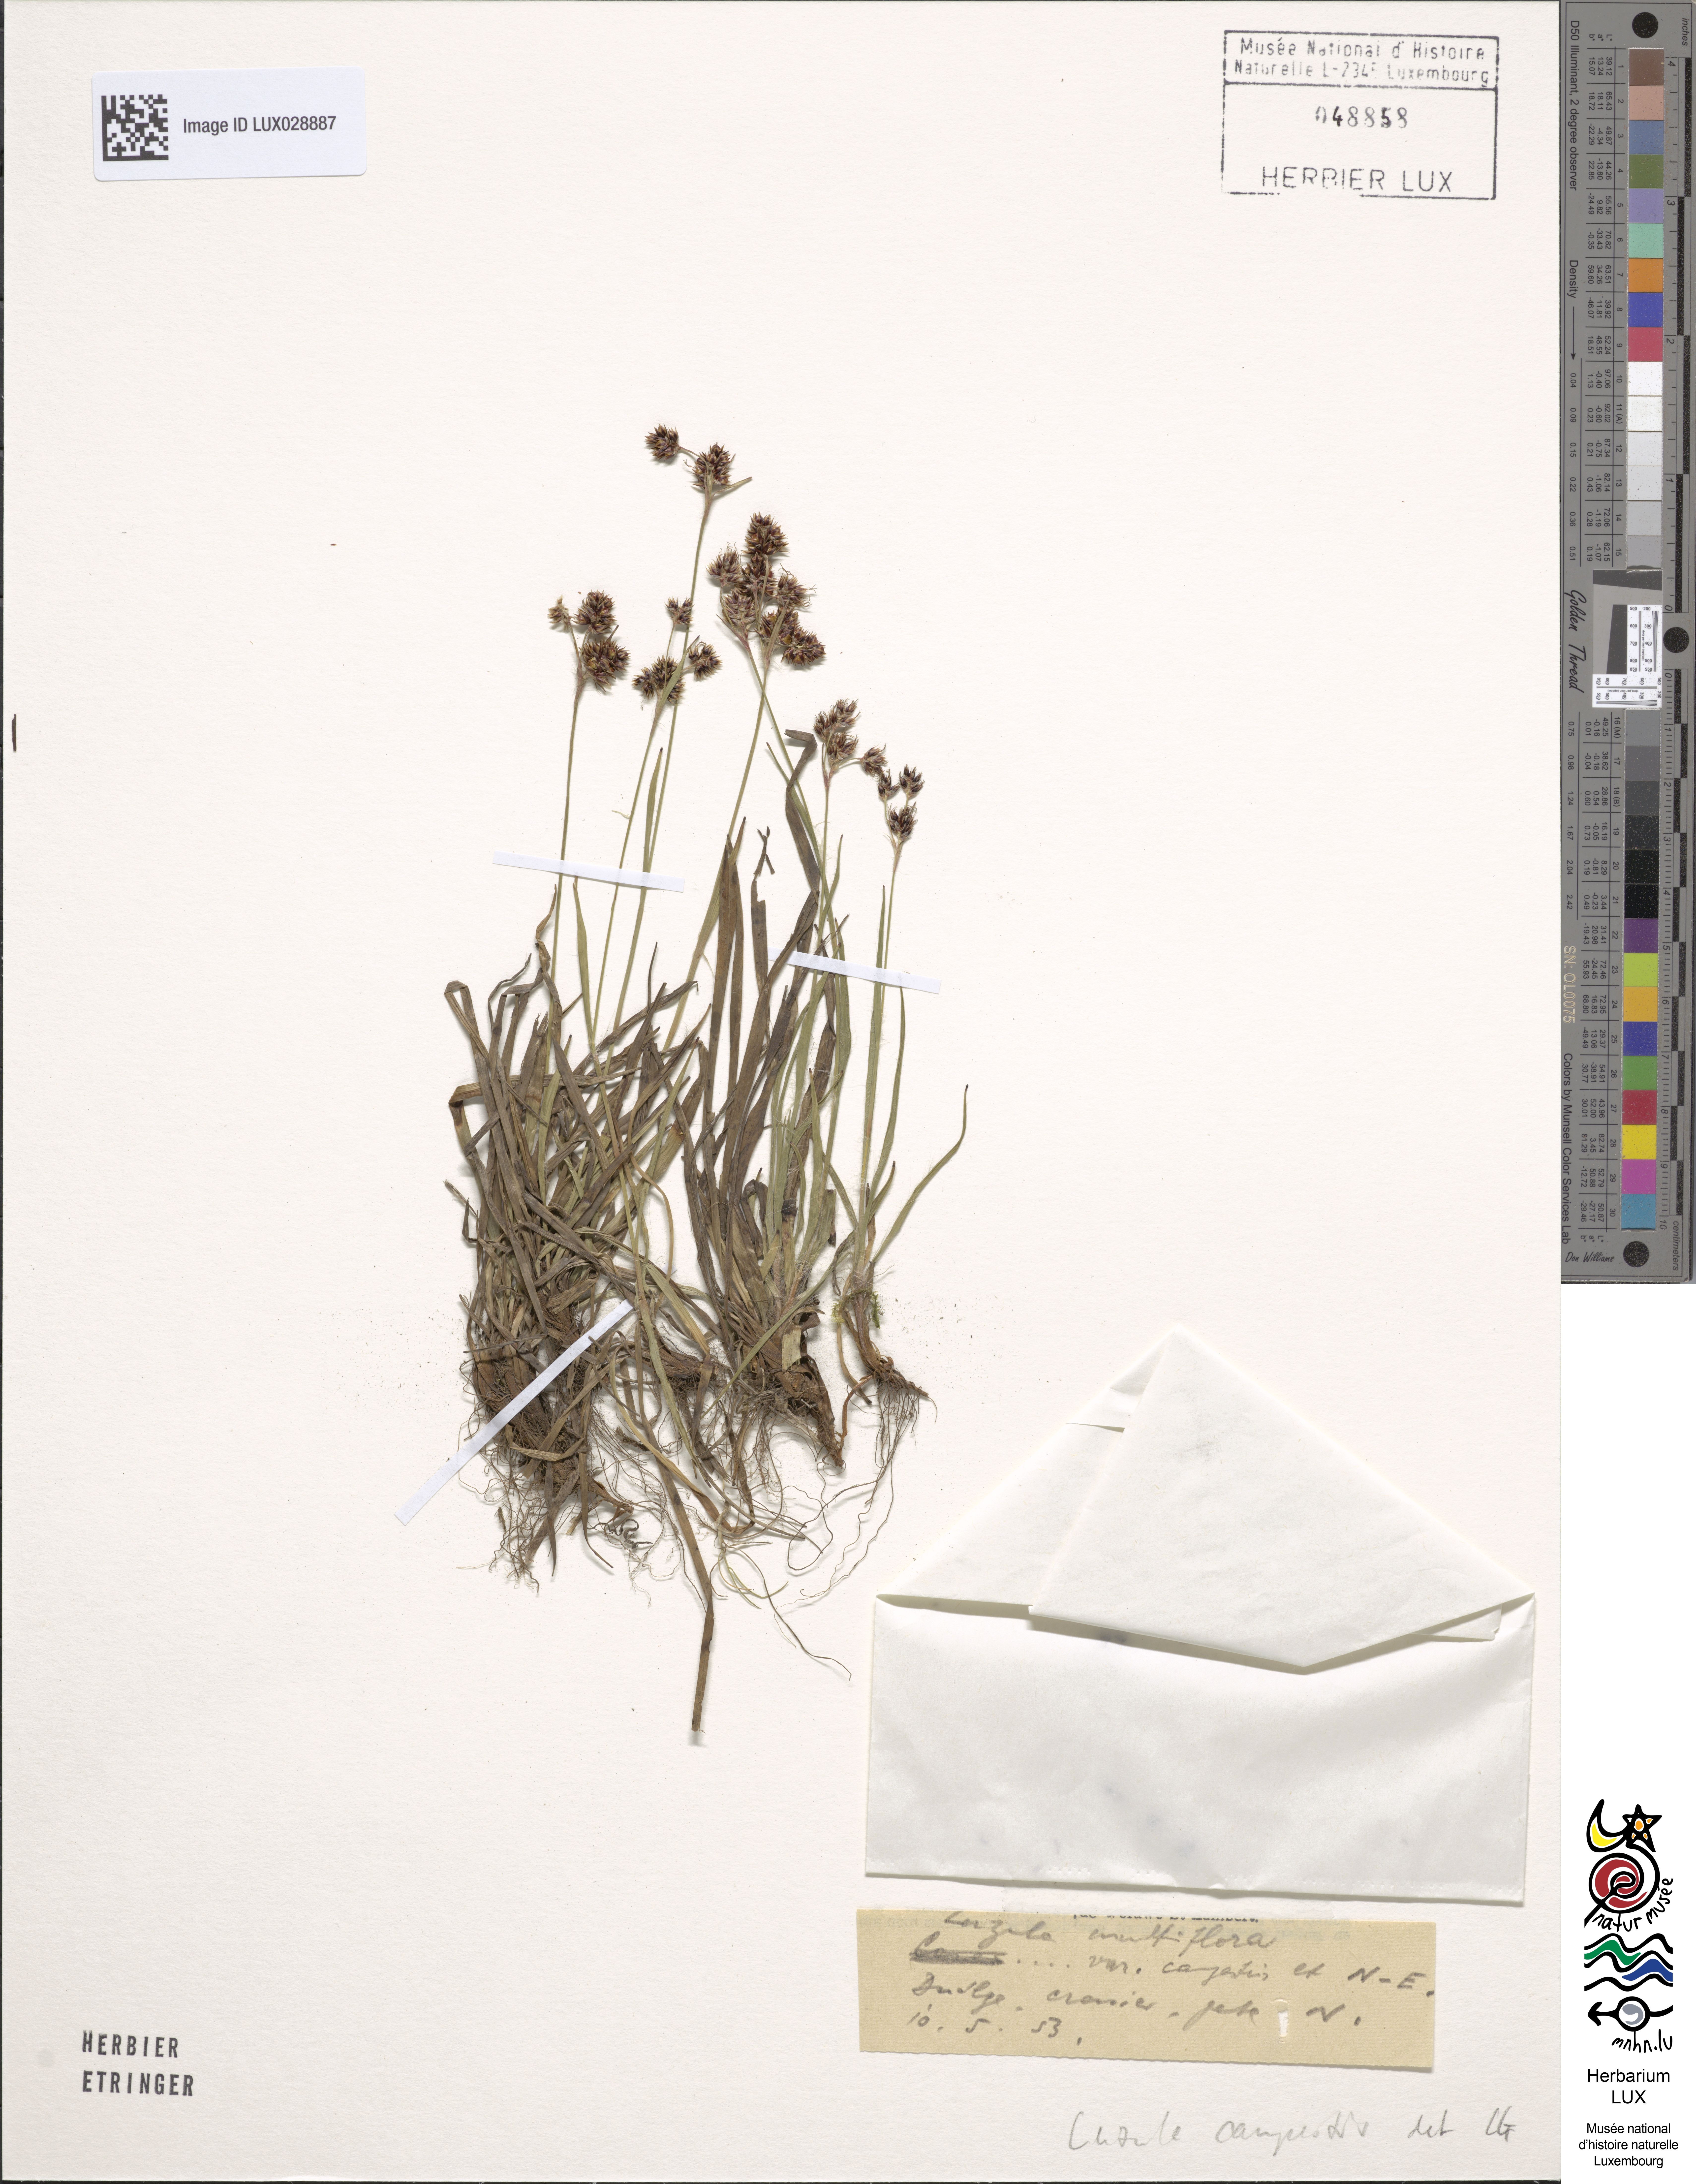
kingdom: Plantae
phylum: Tracheophyta
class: Liliopsida
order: Poales
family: Juncaceae
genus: Luzula
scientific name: Luzula campestris
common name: Field wood-rush
